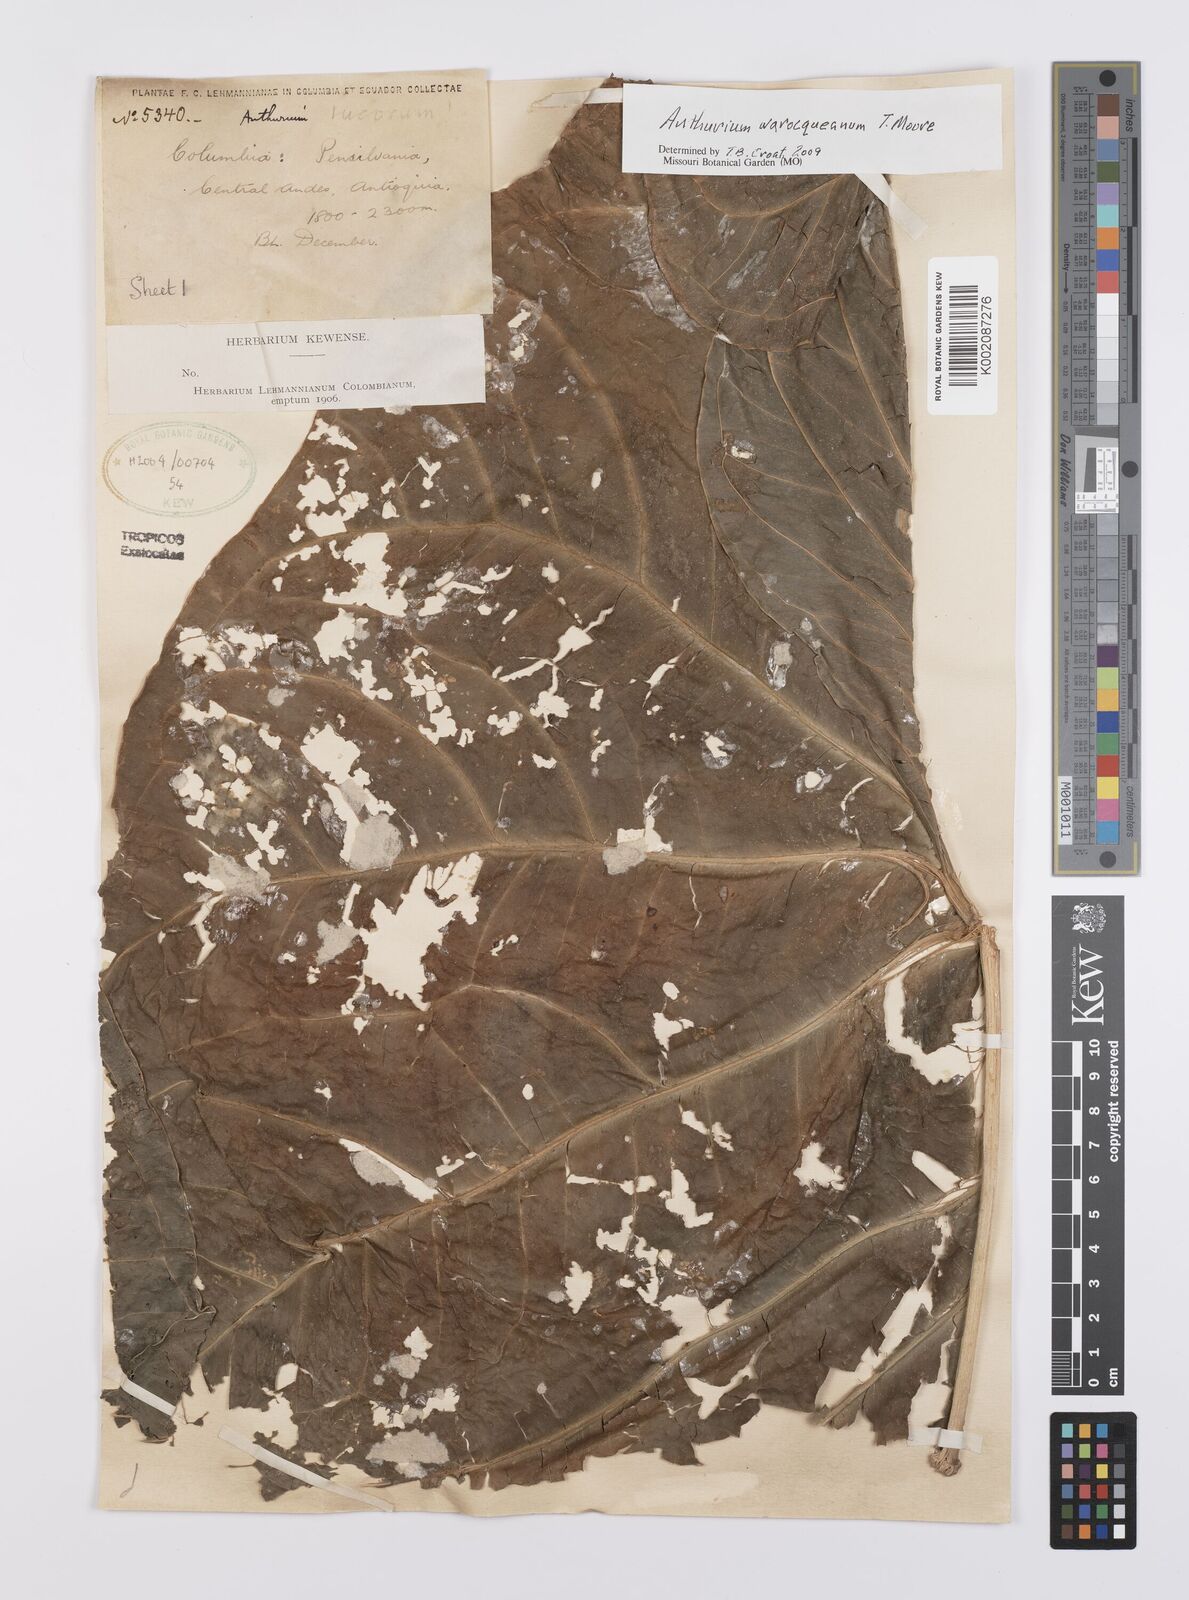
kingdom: Plantae
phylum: Tracheophyta
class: Liliopsida
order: Alismatales
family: Araceae
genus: Anthurium
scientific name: Anthurium warocqueanum
